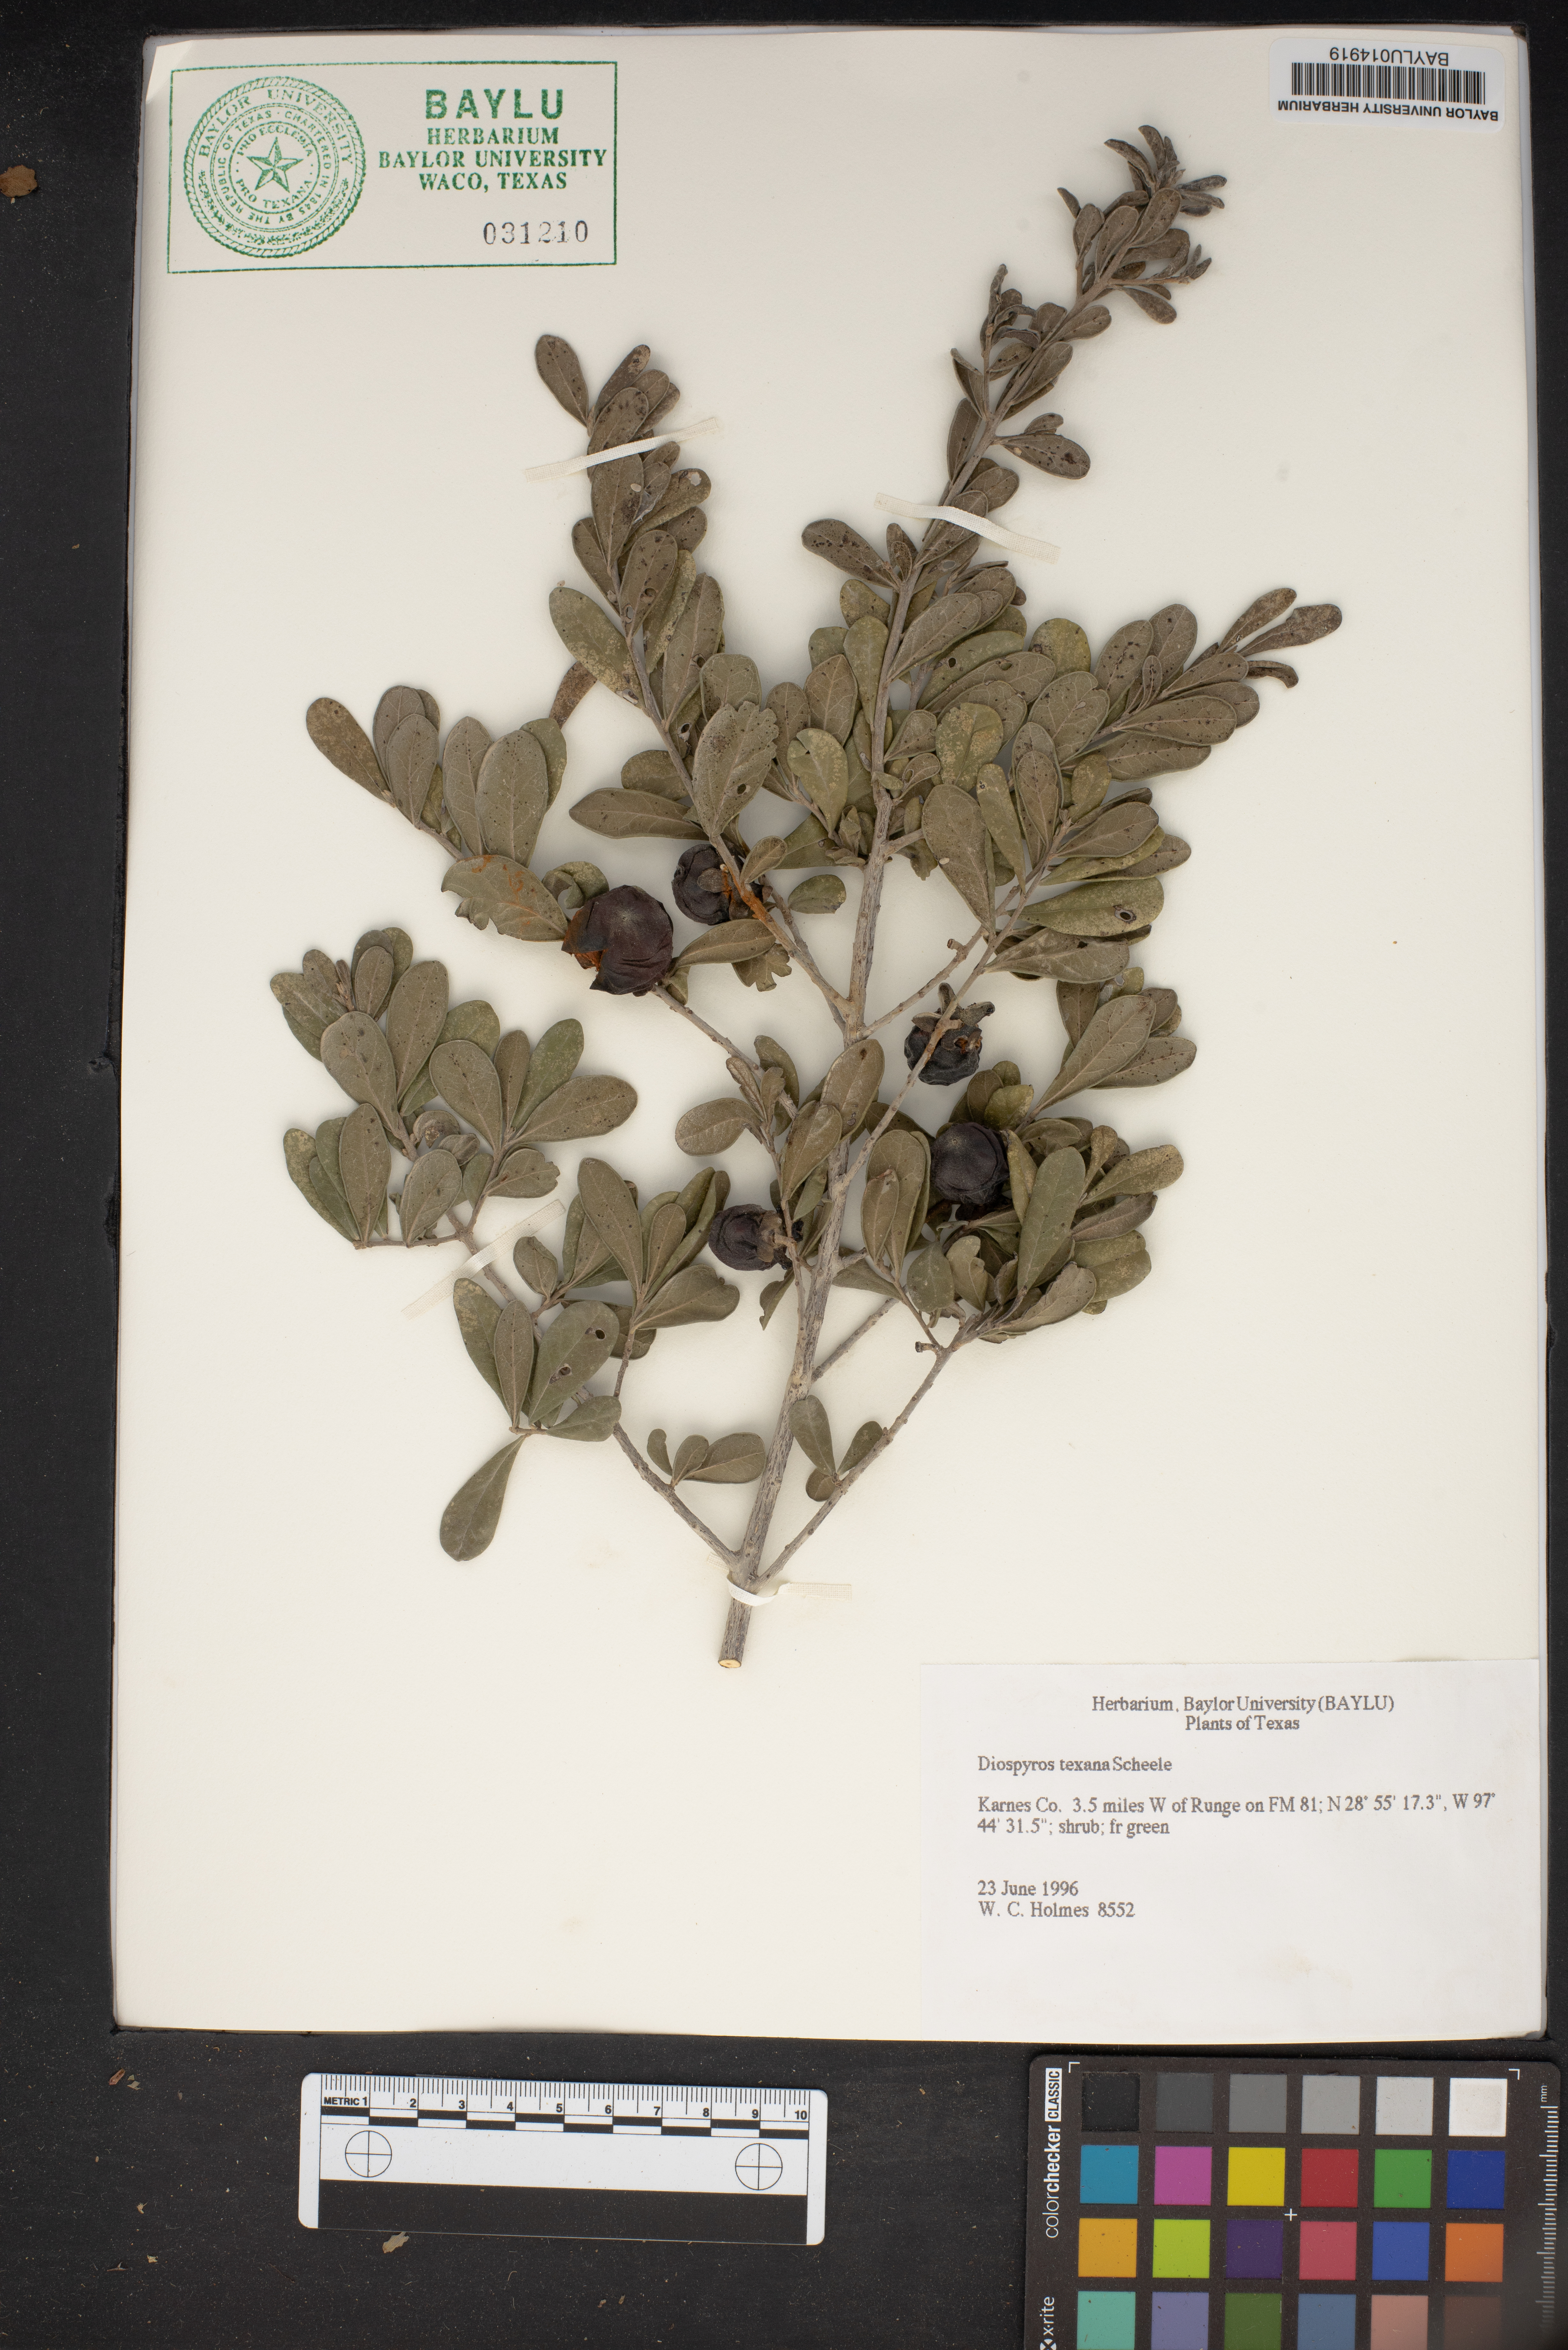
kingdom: Plantae
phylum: Tracheophyta
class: Magnoliopsida
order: Ericales
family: Ebenaceae
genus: Diospyros
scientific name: Diospyros texana
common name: Texas persimmon
